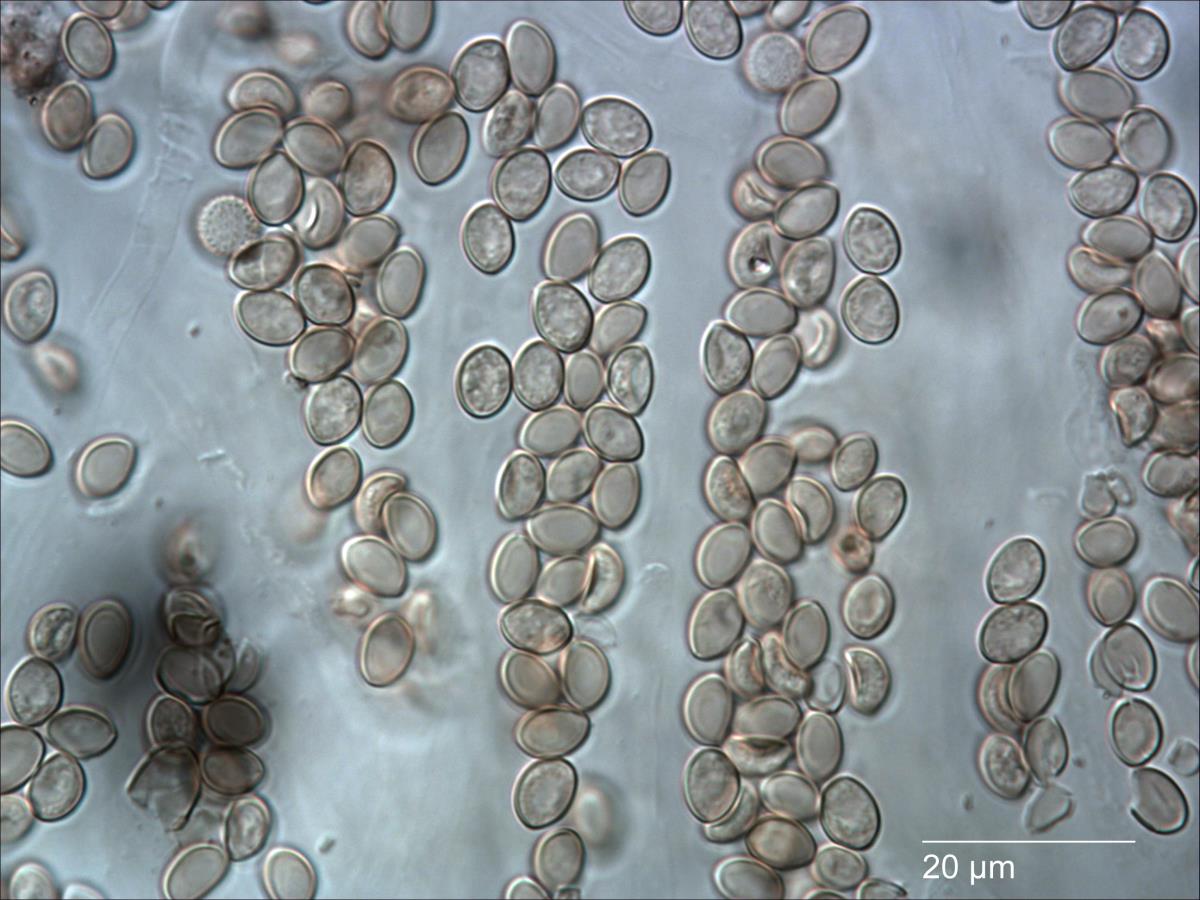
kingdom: Fungi
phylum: Basidiomycota
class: Agaricomycetes
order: Agaricales
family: Crepidotaceae
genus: Crepidotus
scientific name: Crepidotus mollis
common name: Peeling oysterling
